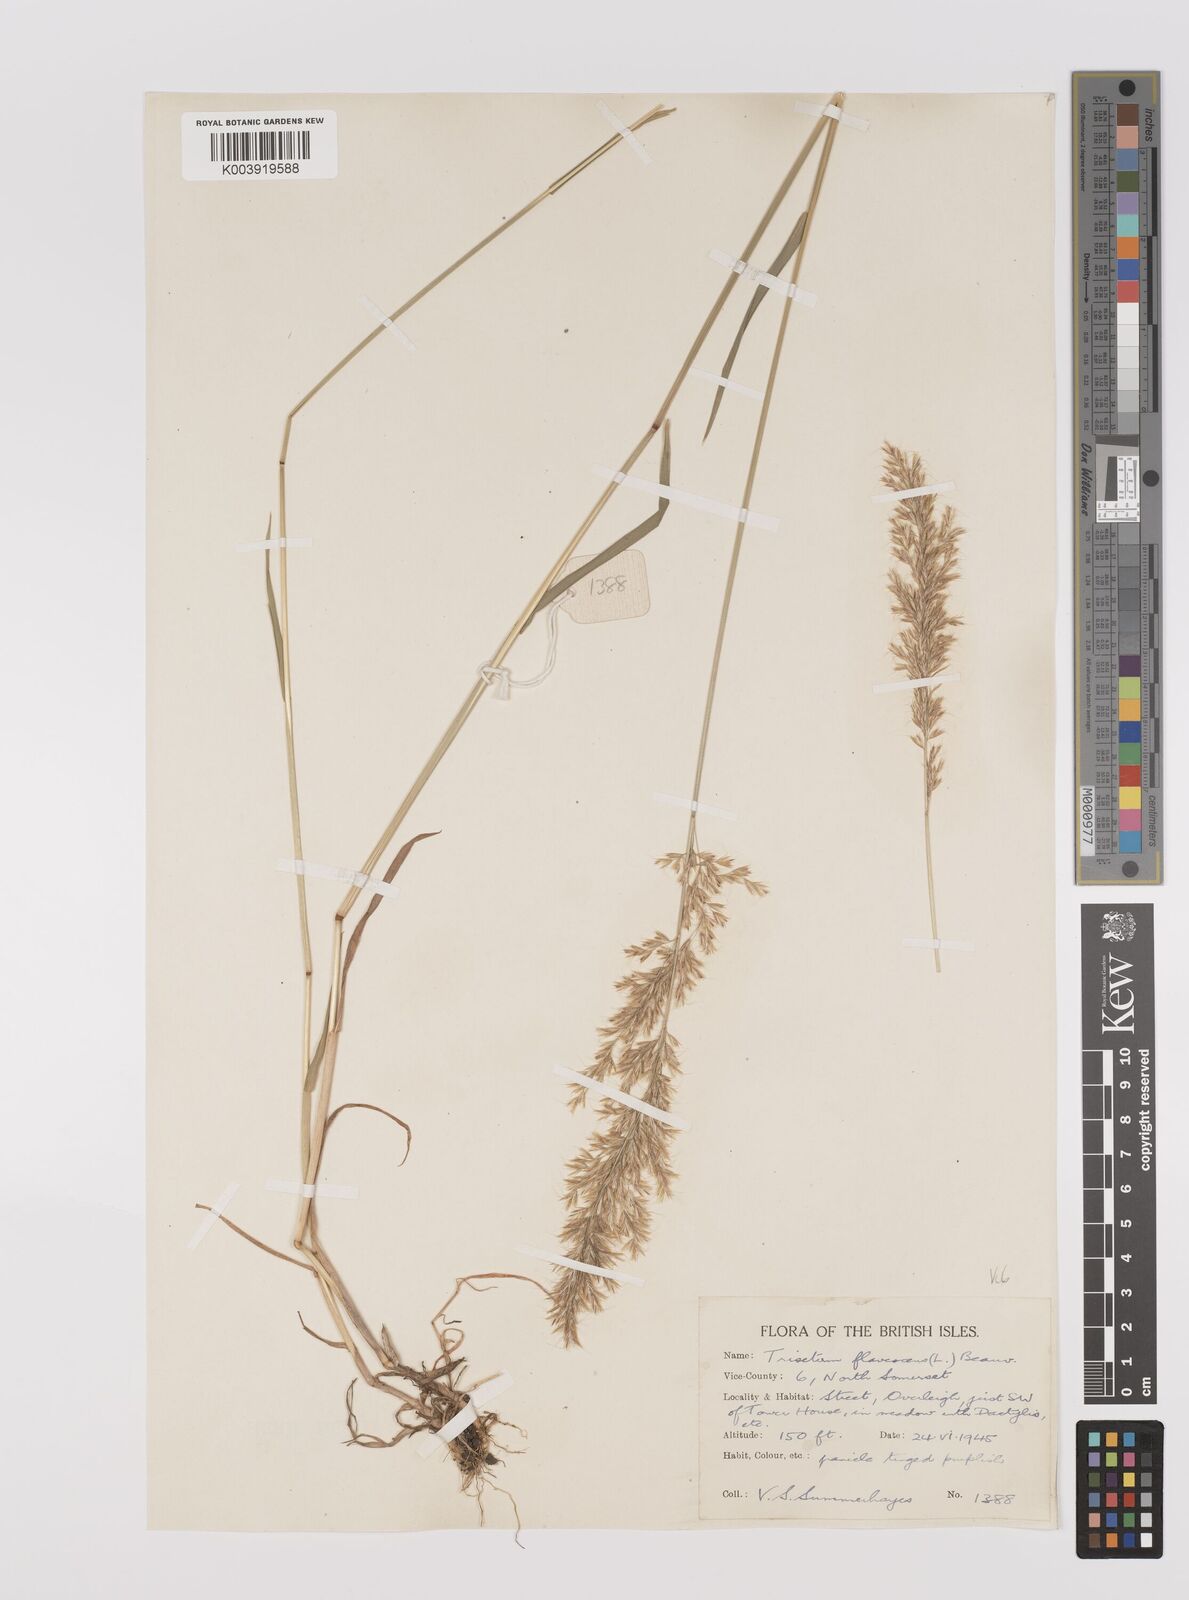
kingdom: Plantae
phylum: Tracheophyta
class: Liliopsida
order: Poales
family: Poaceae
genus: Trisetum
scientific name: Trisetum flavescens
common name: Yellow oat-grass
